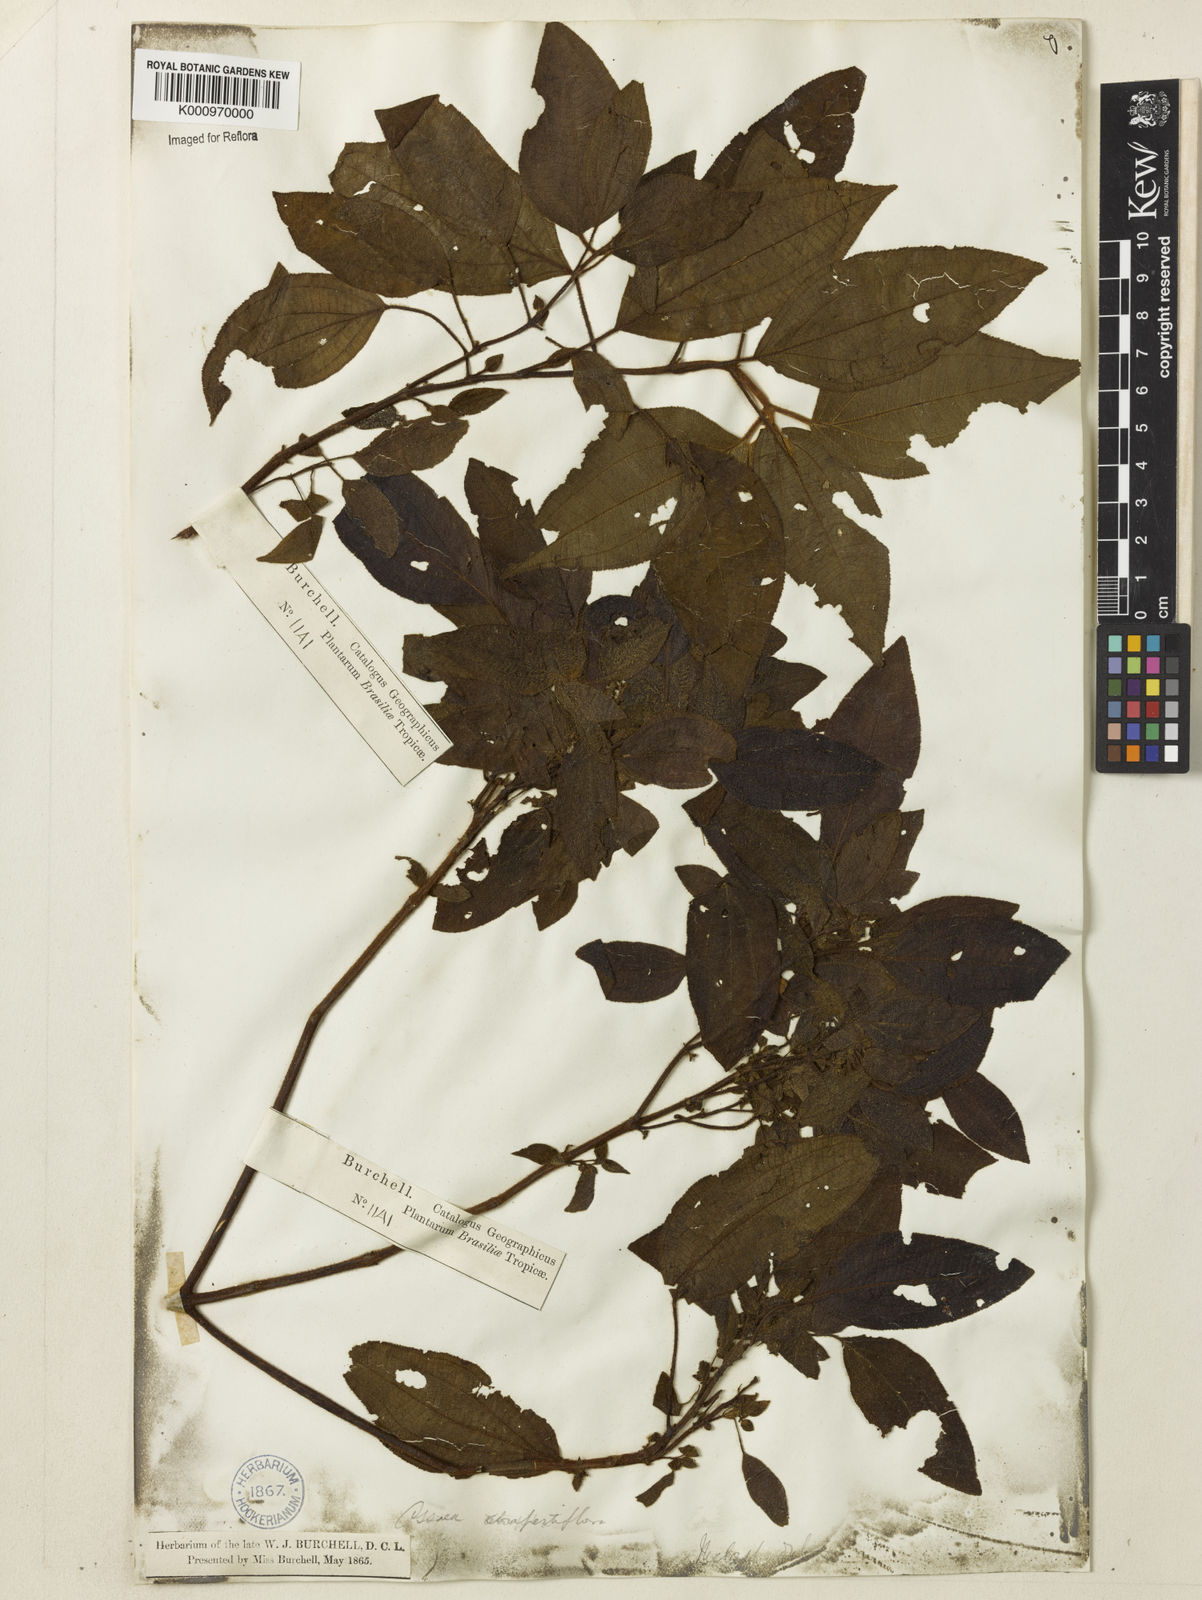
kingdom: Plantae
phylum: Tracheophyta
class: Magnoliopsida
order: Myrtales
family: Melastomataceae
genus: Miconia
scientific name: Miconia rubella
